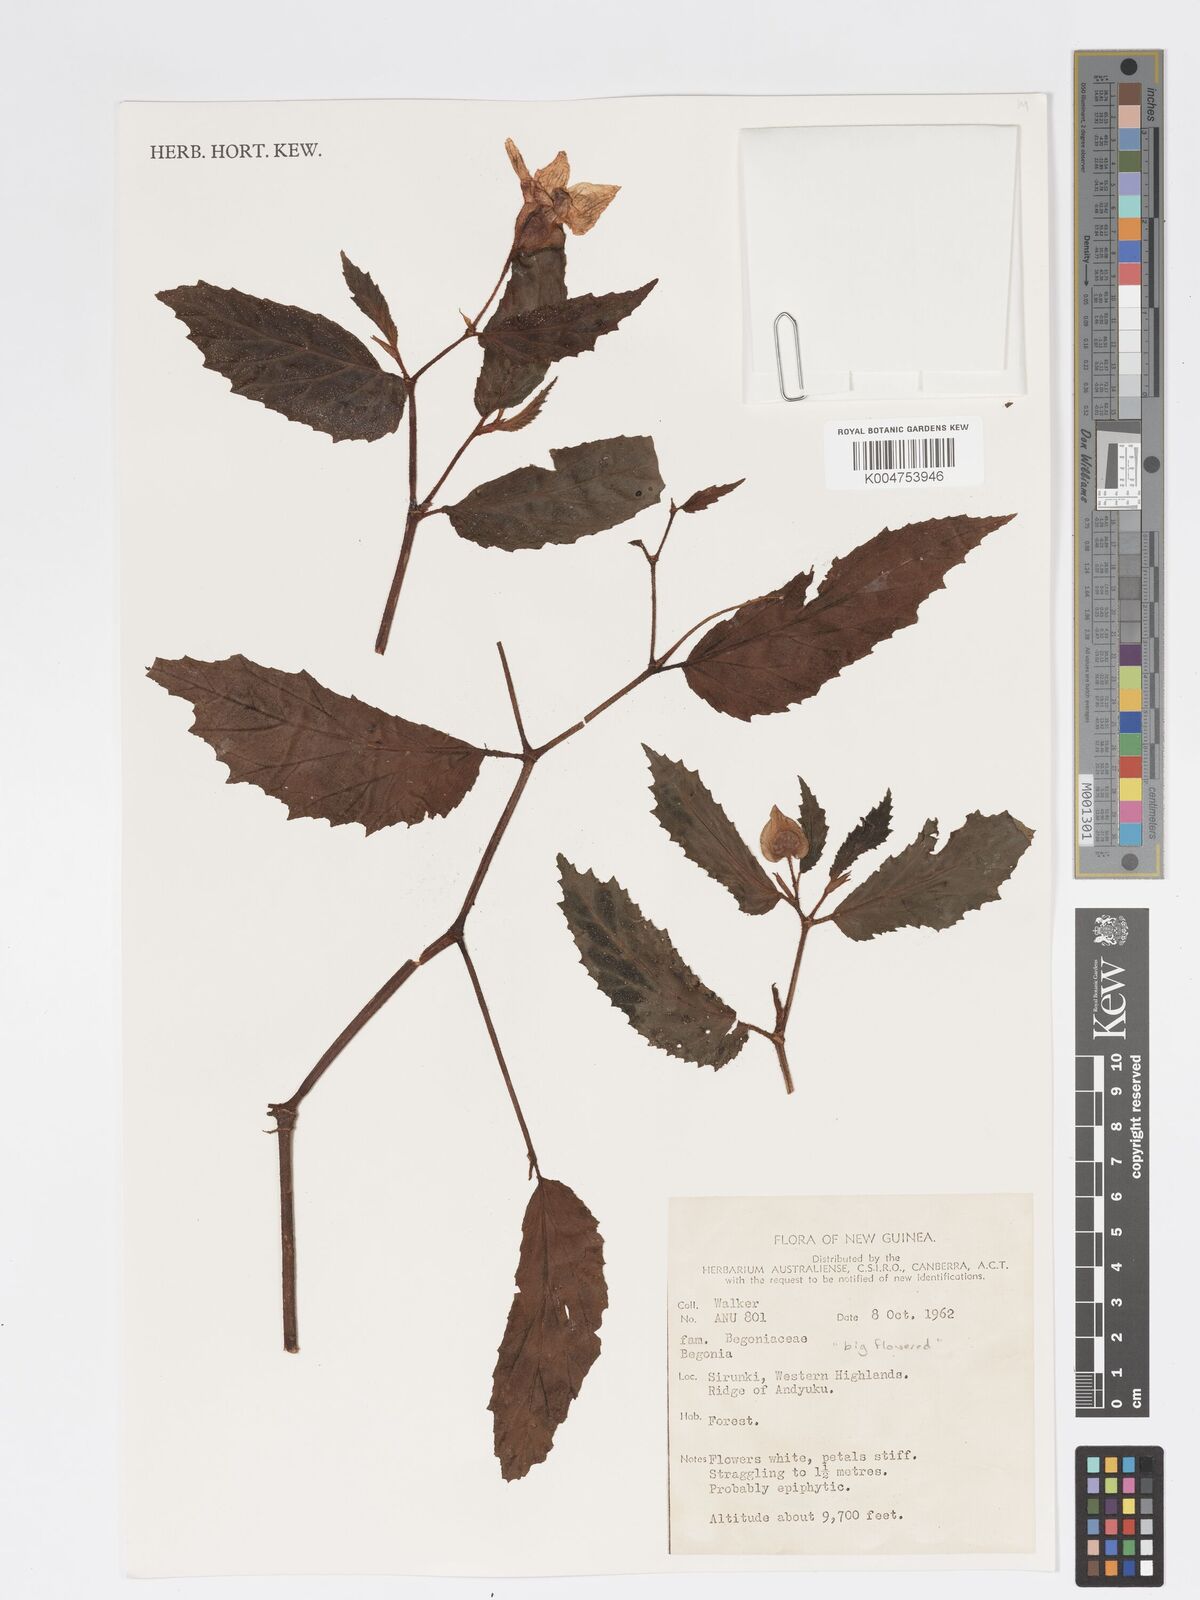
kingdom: Plantae
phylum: Tracheophyta
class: Magnoliopsida
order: Cucurbitales
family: Begoniaceae
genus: Begonia
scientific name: Begonia
